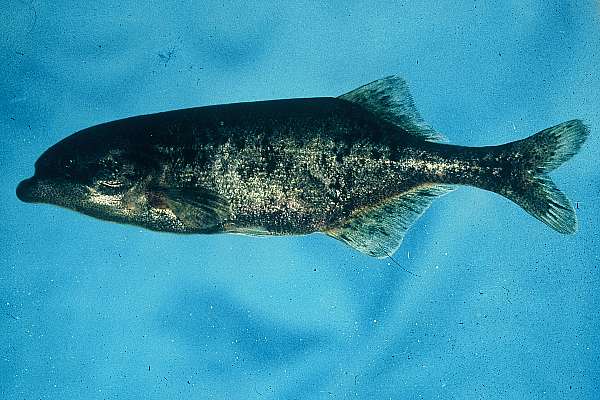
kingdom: Animalia
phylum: Chordata
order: Osteoglossiformes
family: Mormyridae
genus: Marcusenius
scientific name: Marcusenius macrolepidotus
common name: Bulldog
